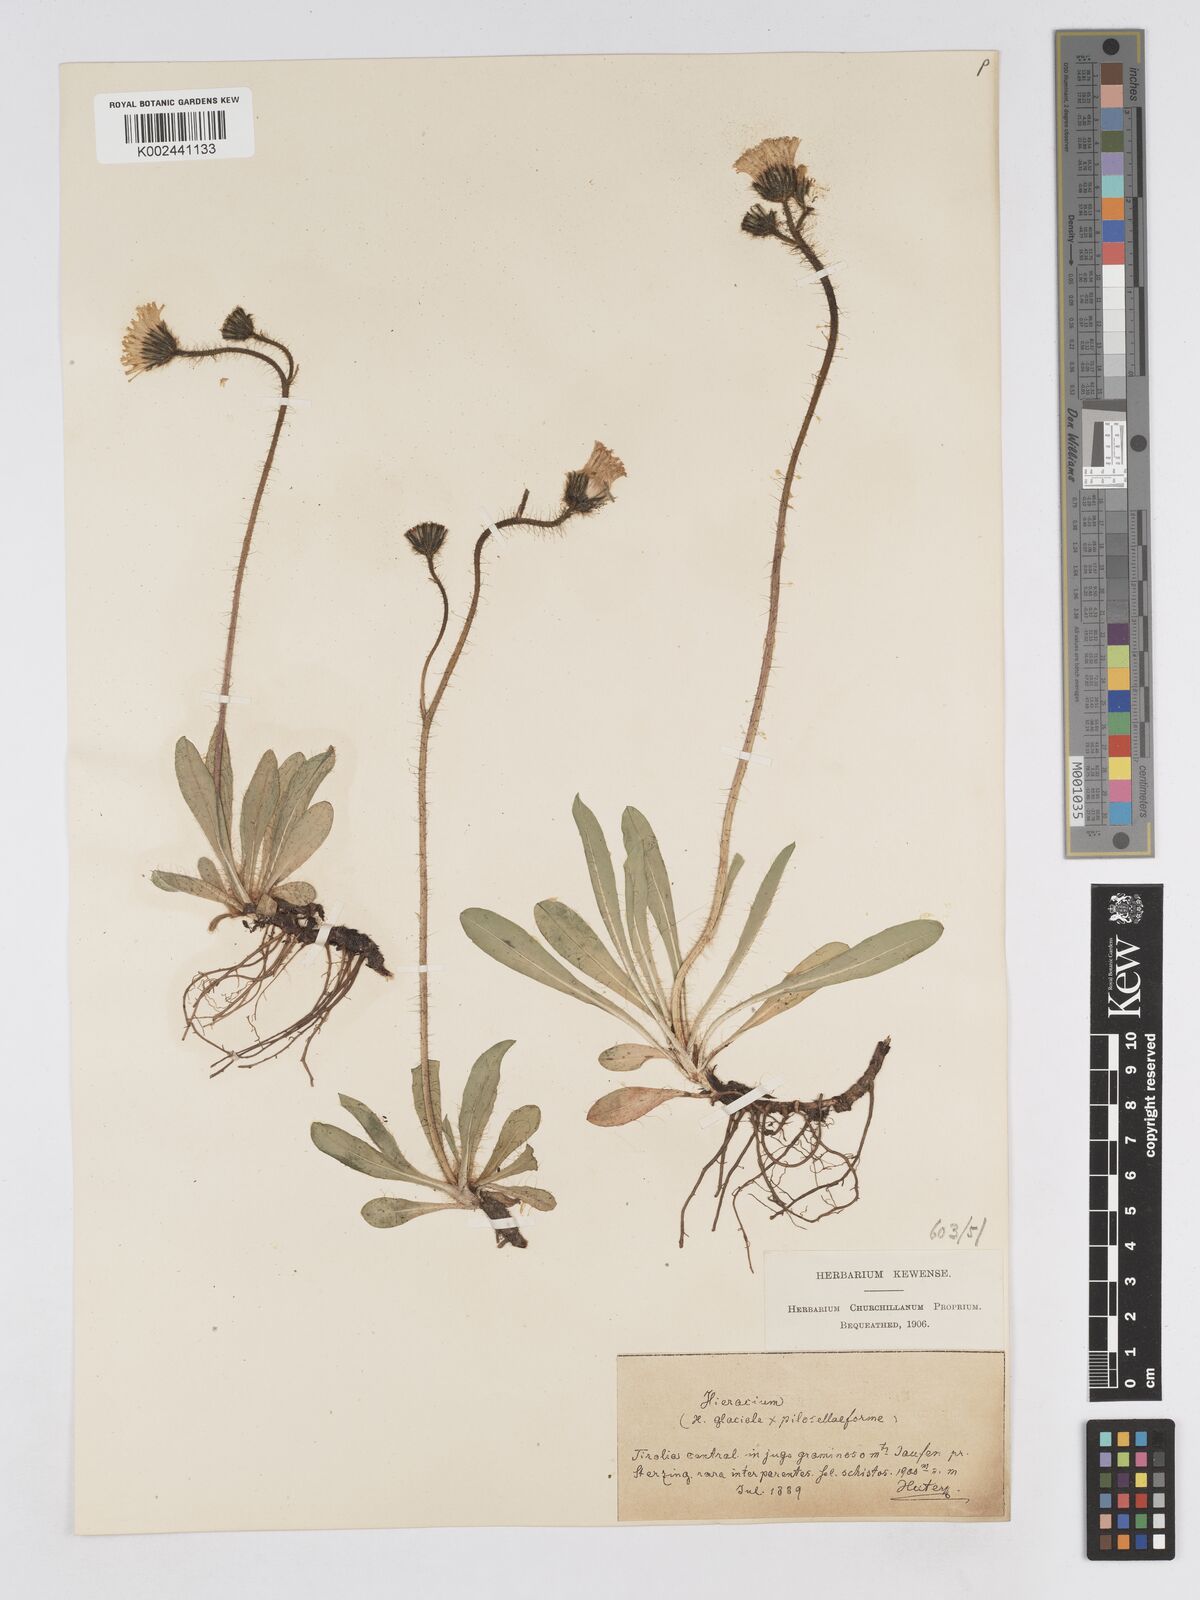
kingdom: Plantae
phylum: Tracheophyta
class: Magnoliopsida
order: Asterales
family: Asteraceae
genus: Pilosella
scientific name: Pilosella hypoleuca
